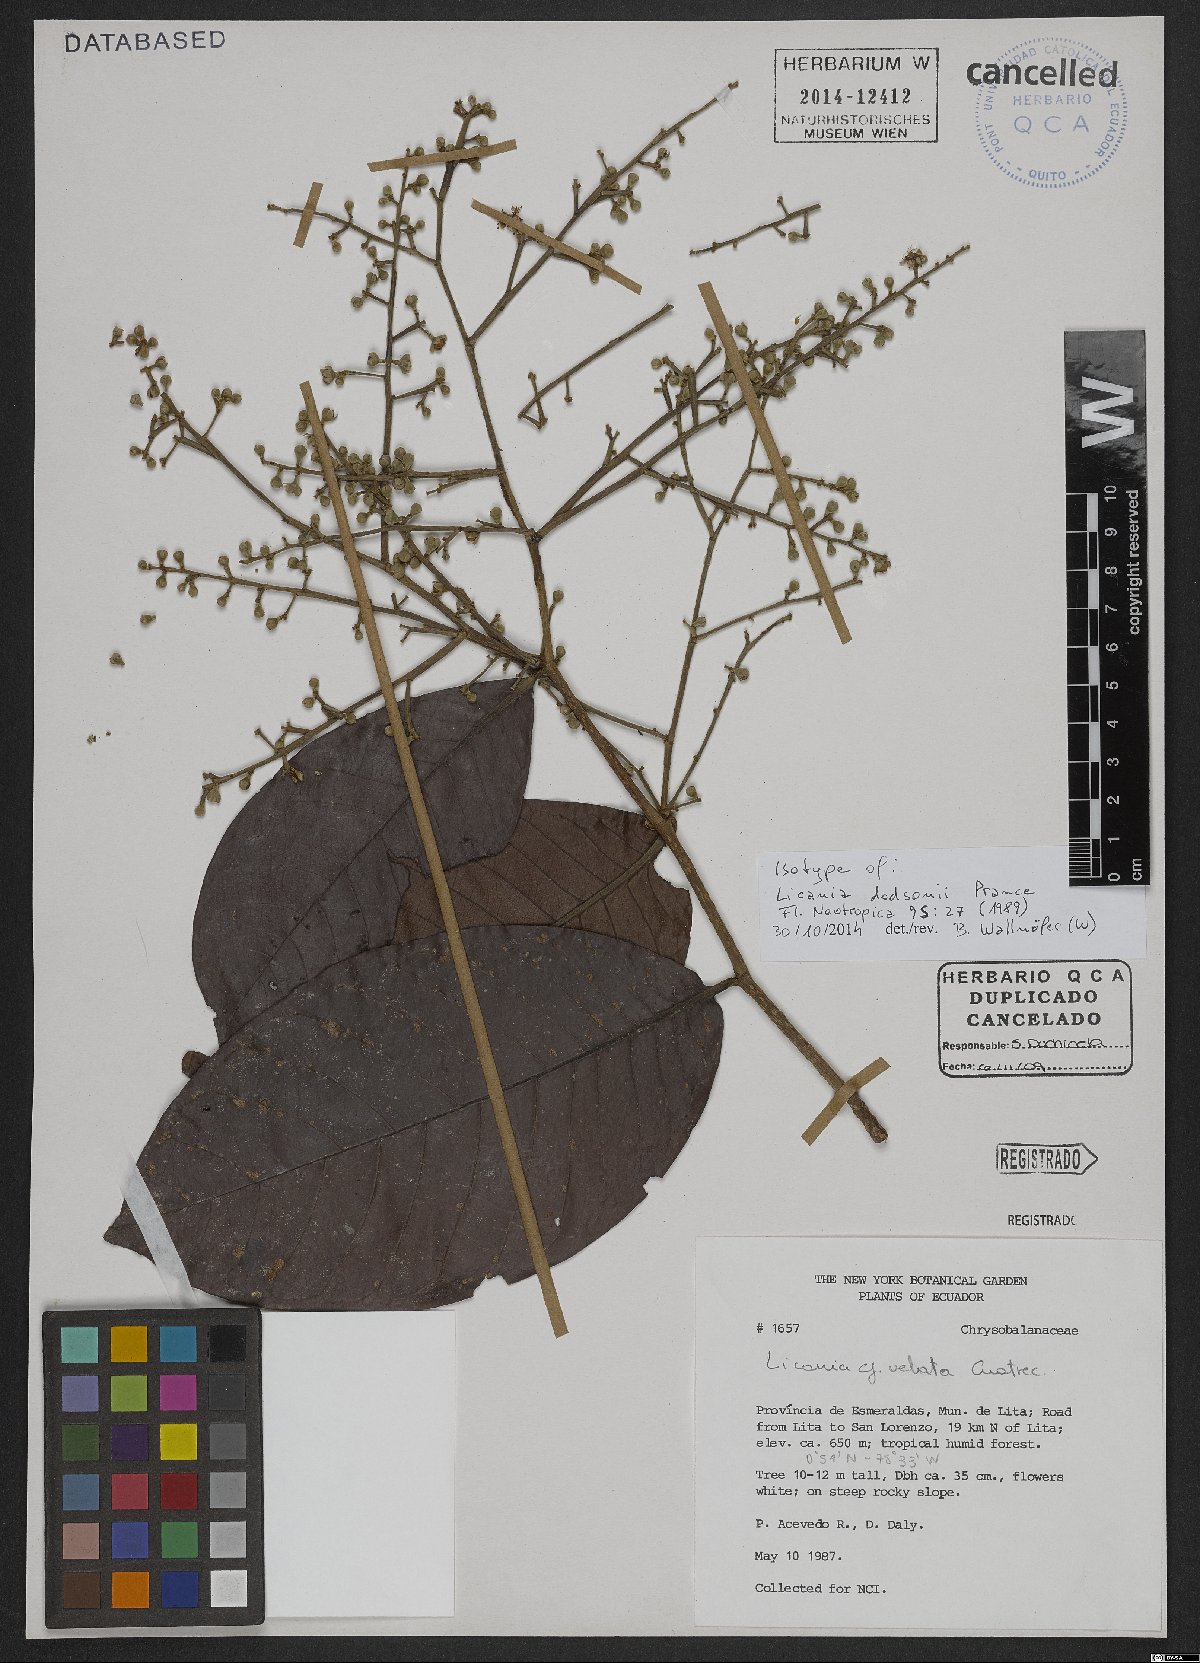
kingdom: Plantae
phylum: Tracheophyta
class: Magnoliopsida
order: Malpighiales
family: Chrysobalanaceae
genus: Moquilea
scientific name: Moquilea dodsonii
